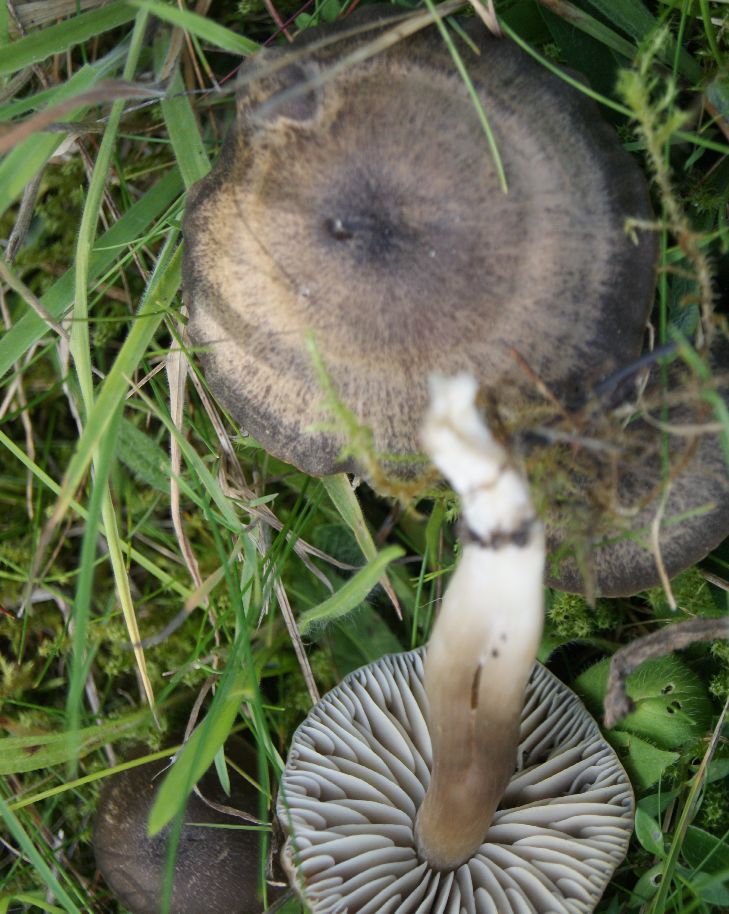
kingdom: Fungi
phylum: Basidiomycota
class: Agaricomycetes
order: Agaricales
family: Hygrophoraceae
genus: Neohygrocybe
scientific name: Neohygrocybe nitrata
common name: stinkende vokshat
